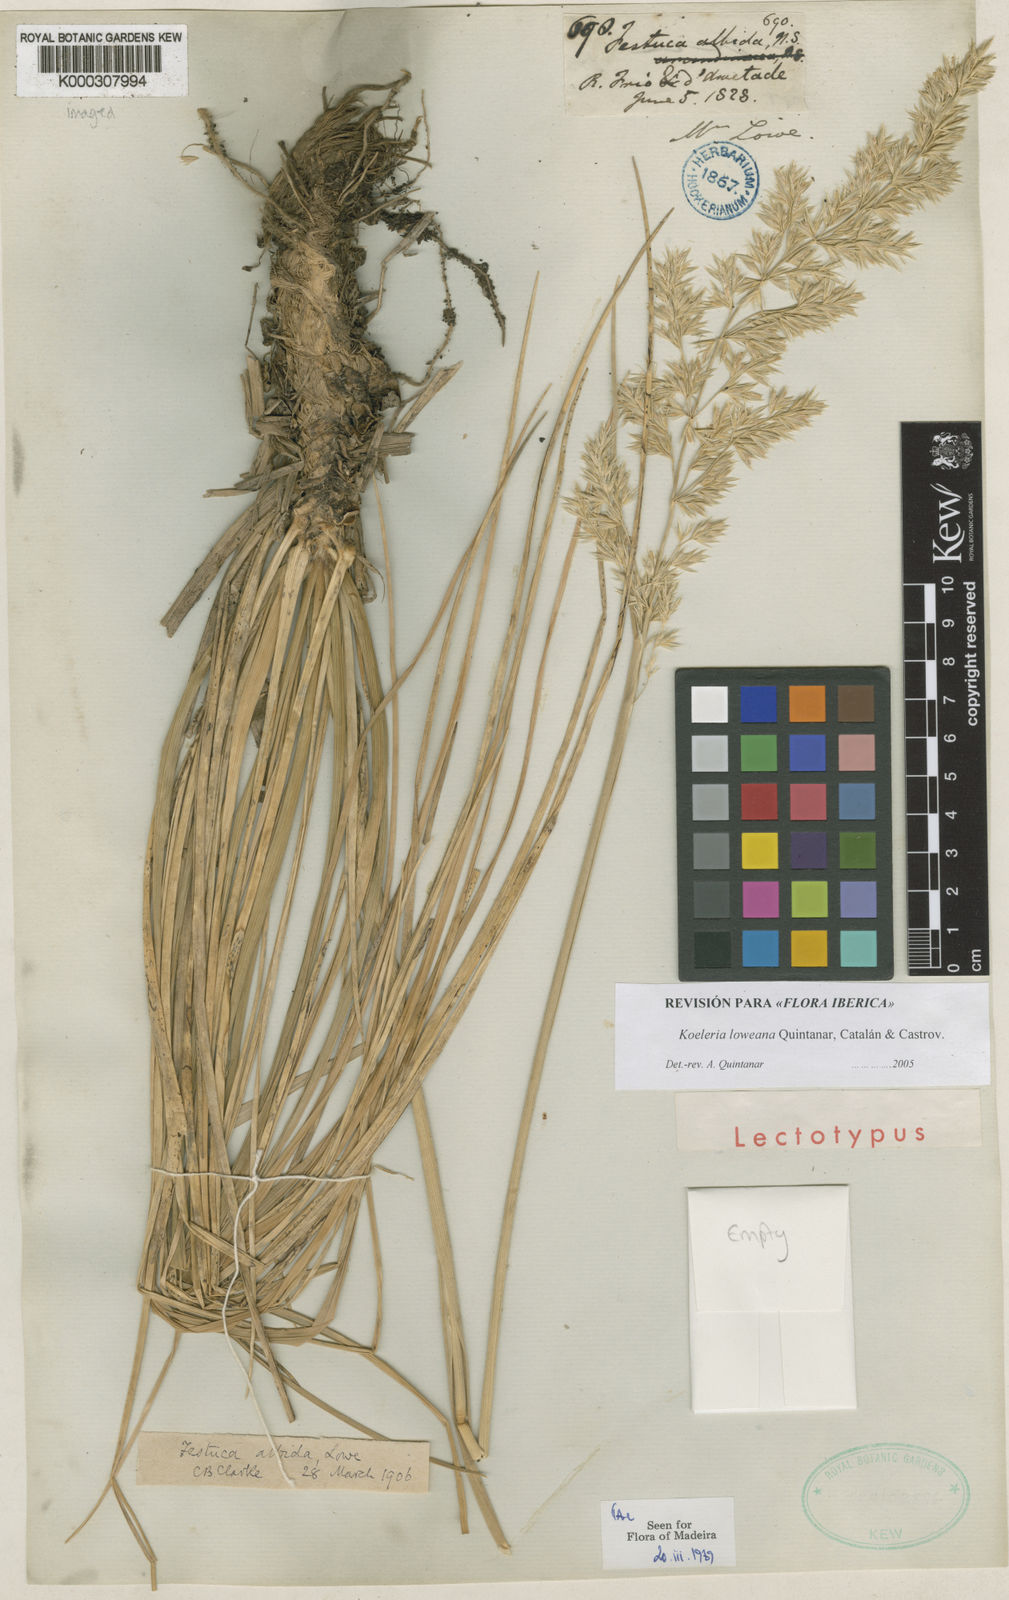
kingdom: Plantae
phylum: Tracheophyta
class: Liliopsida
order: Poales
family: Poaceae
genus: Koeleria
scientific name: Koeleria
